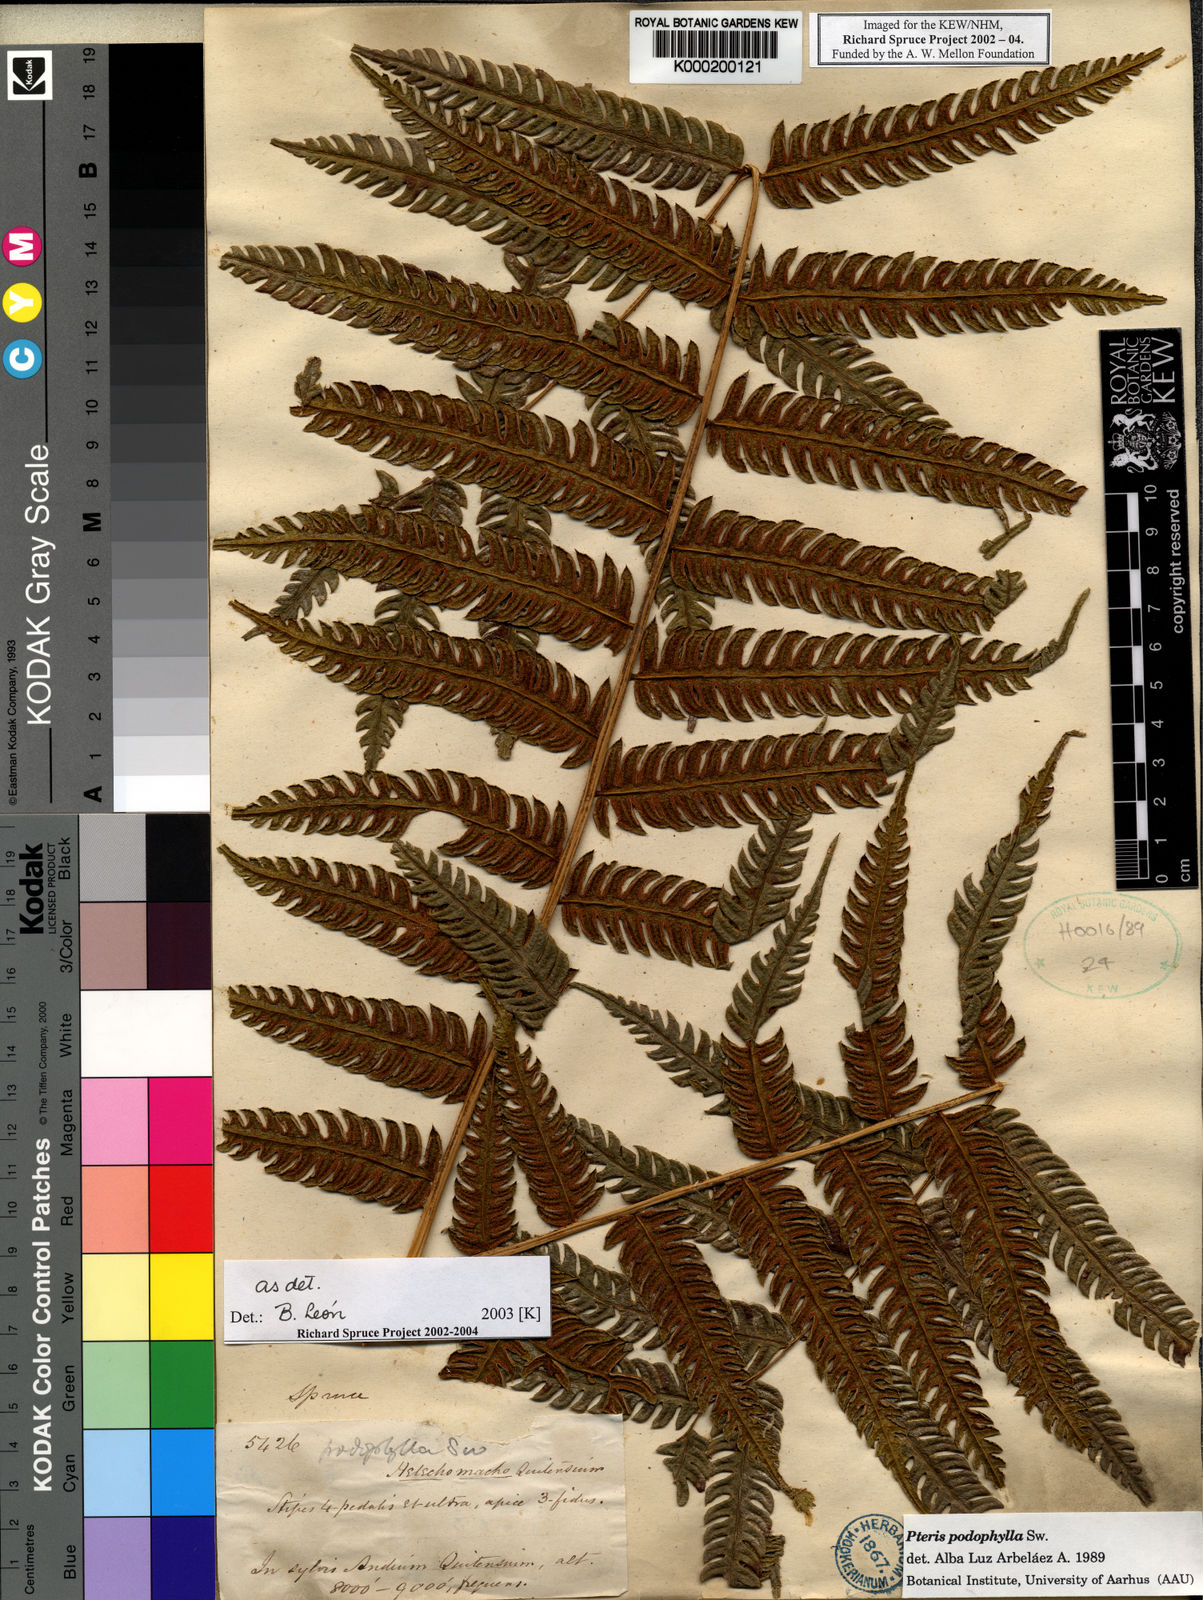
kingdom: Plantae
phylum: Tracheophyta
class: Polypodiopsida
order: Polypodiales
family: Pteridaceae
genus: Pteris
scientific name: Pteris podophylla
